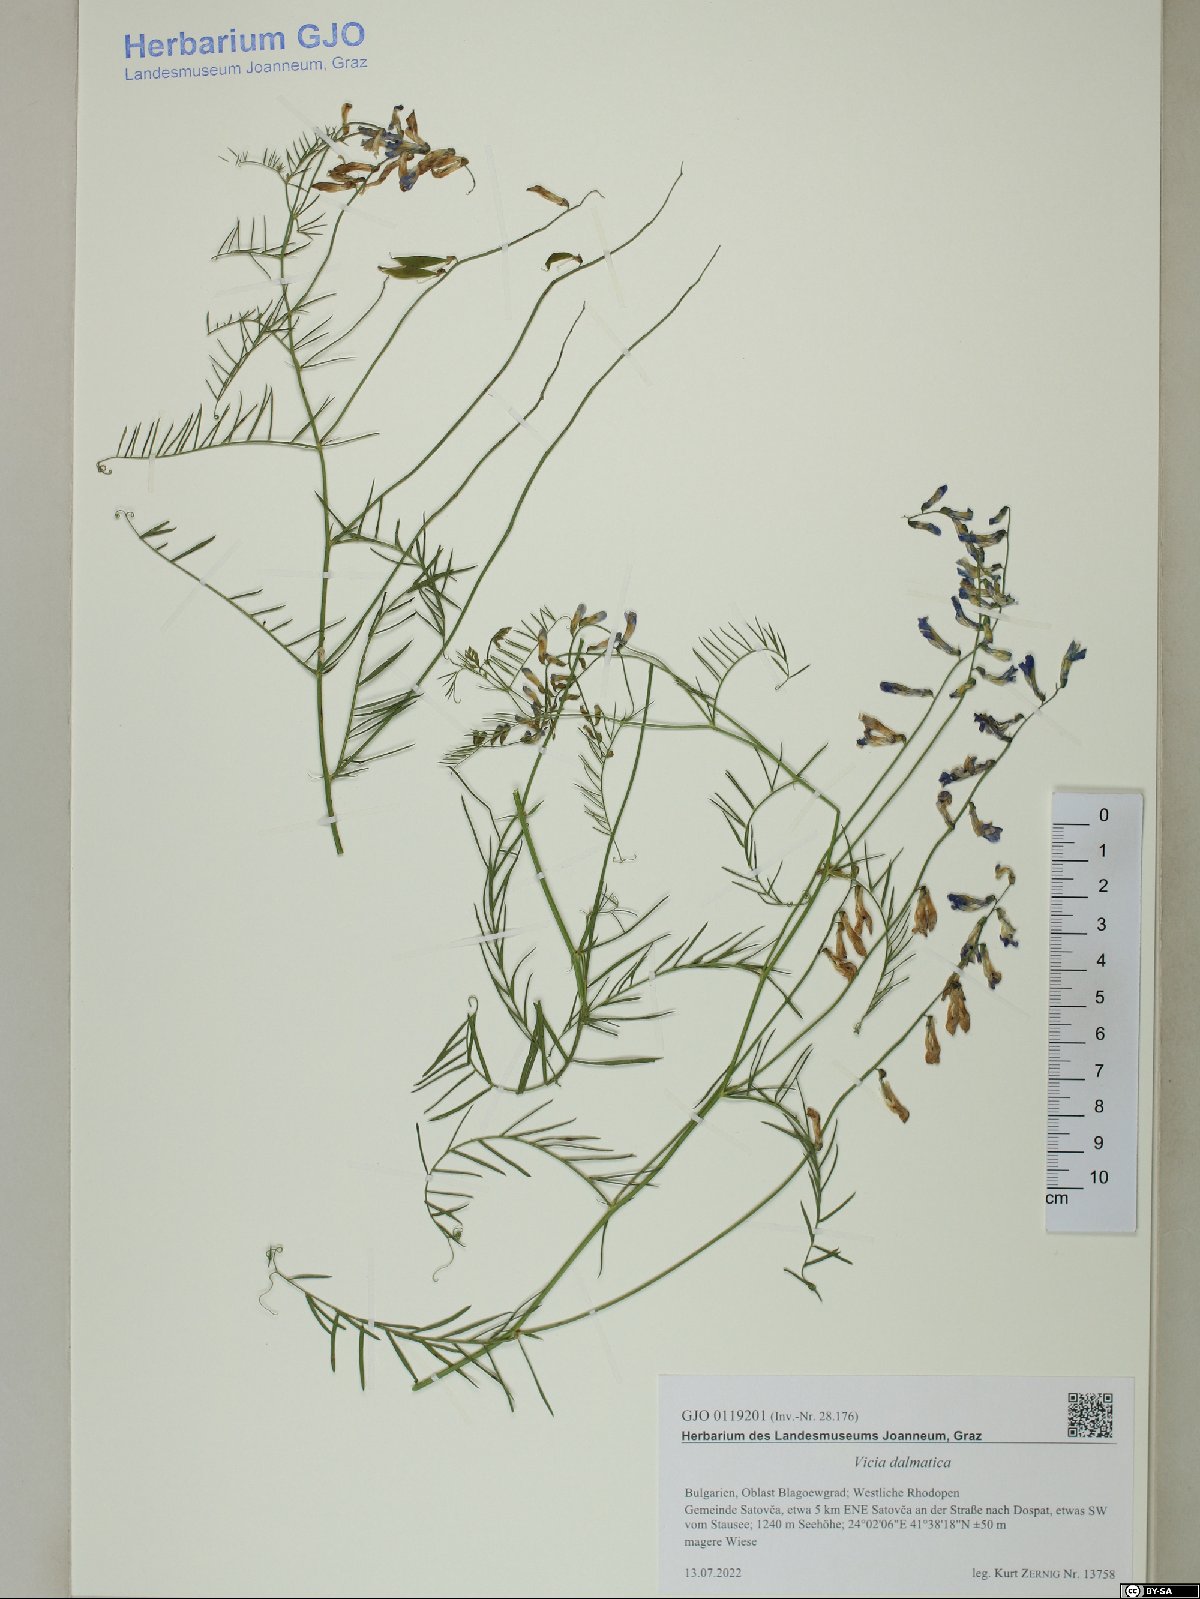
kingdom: Plantae
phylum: Tracheophyta
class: Magnoliopsida
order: Fabales
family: Fabaceae
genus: Vicia
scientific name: Vicia dalmatica
